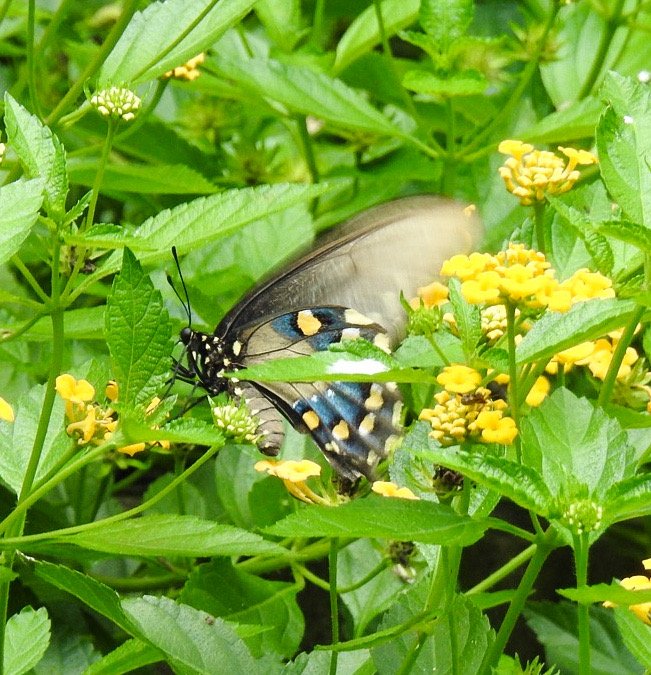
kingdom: Animalia
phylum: Arthropoda
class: Insecta
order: Lepidoptera
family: Papilionidae
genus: Battus
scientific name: Battus philenor
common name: Pipevine Swallowtail
